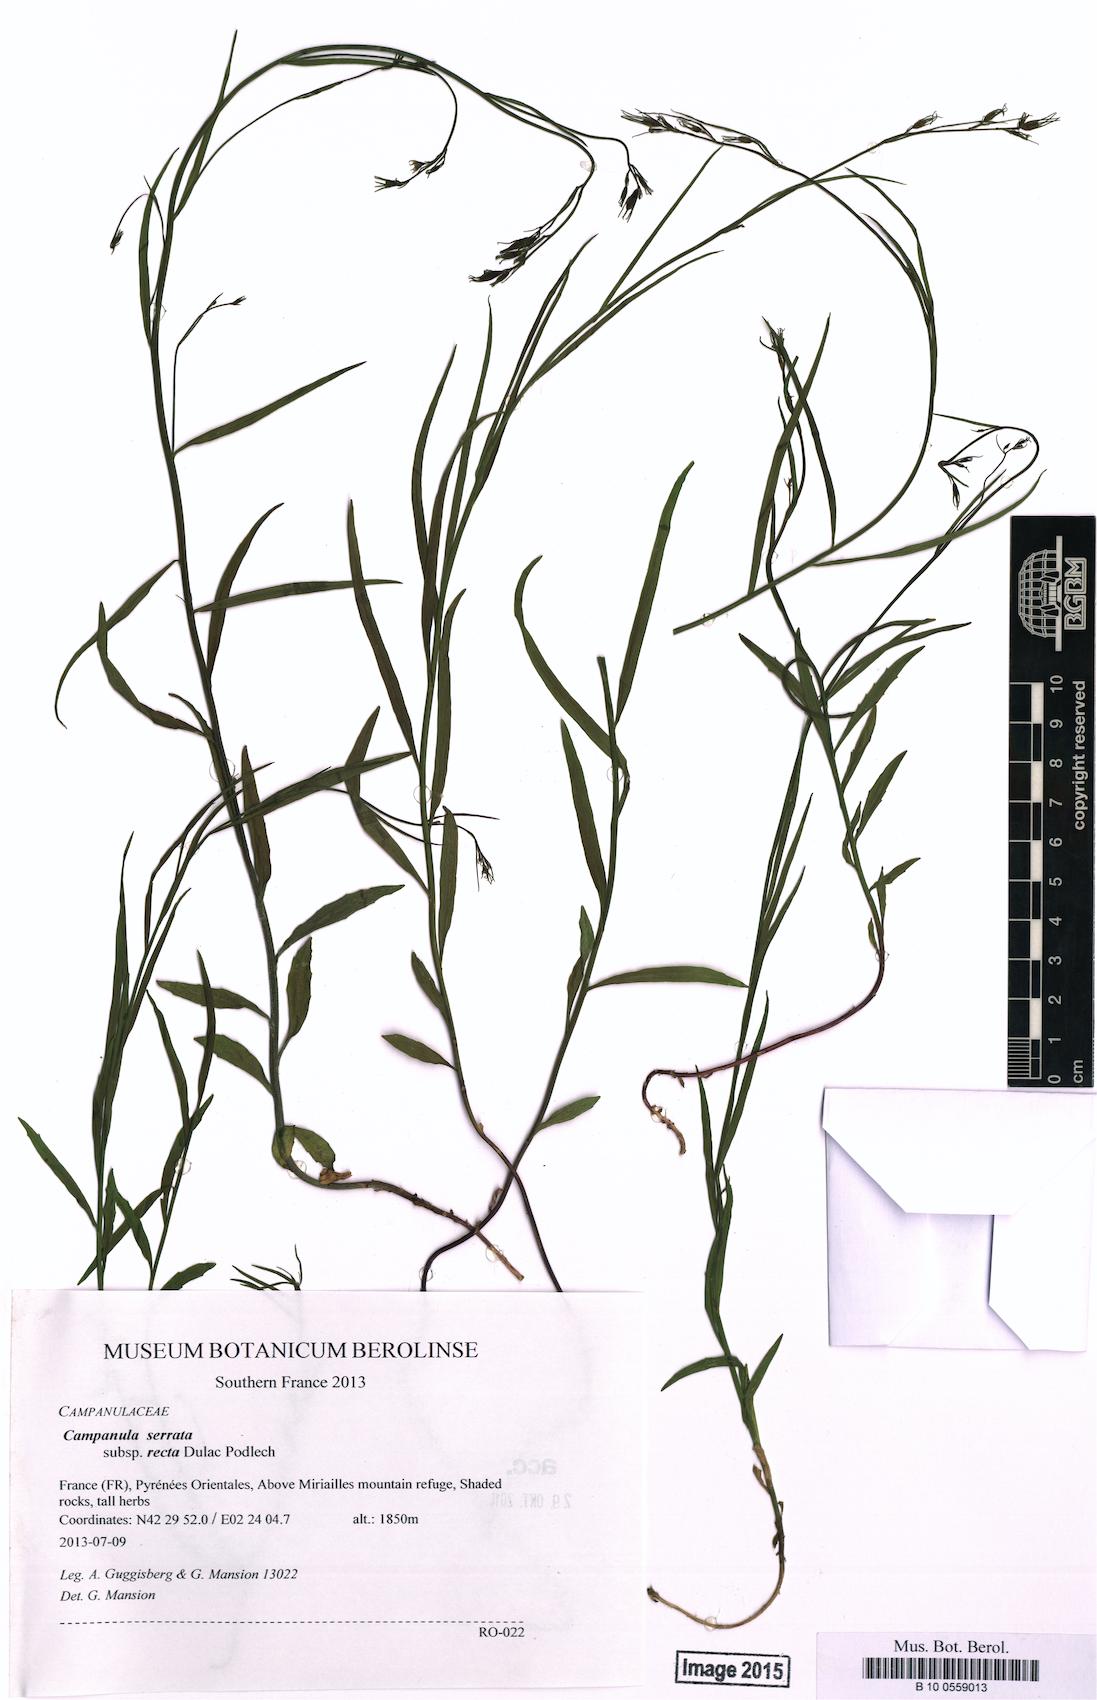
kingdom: Plantae
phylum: Tracheophyta
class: Magnoliopsida
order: Asterales
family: Campanulaceae
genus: Campanula
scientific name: Campanula scheuchzeri
